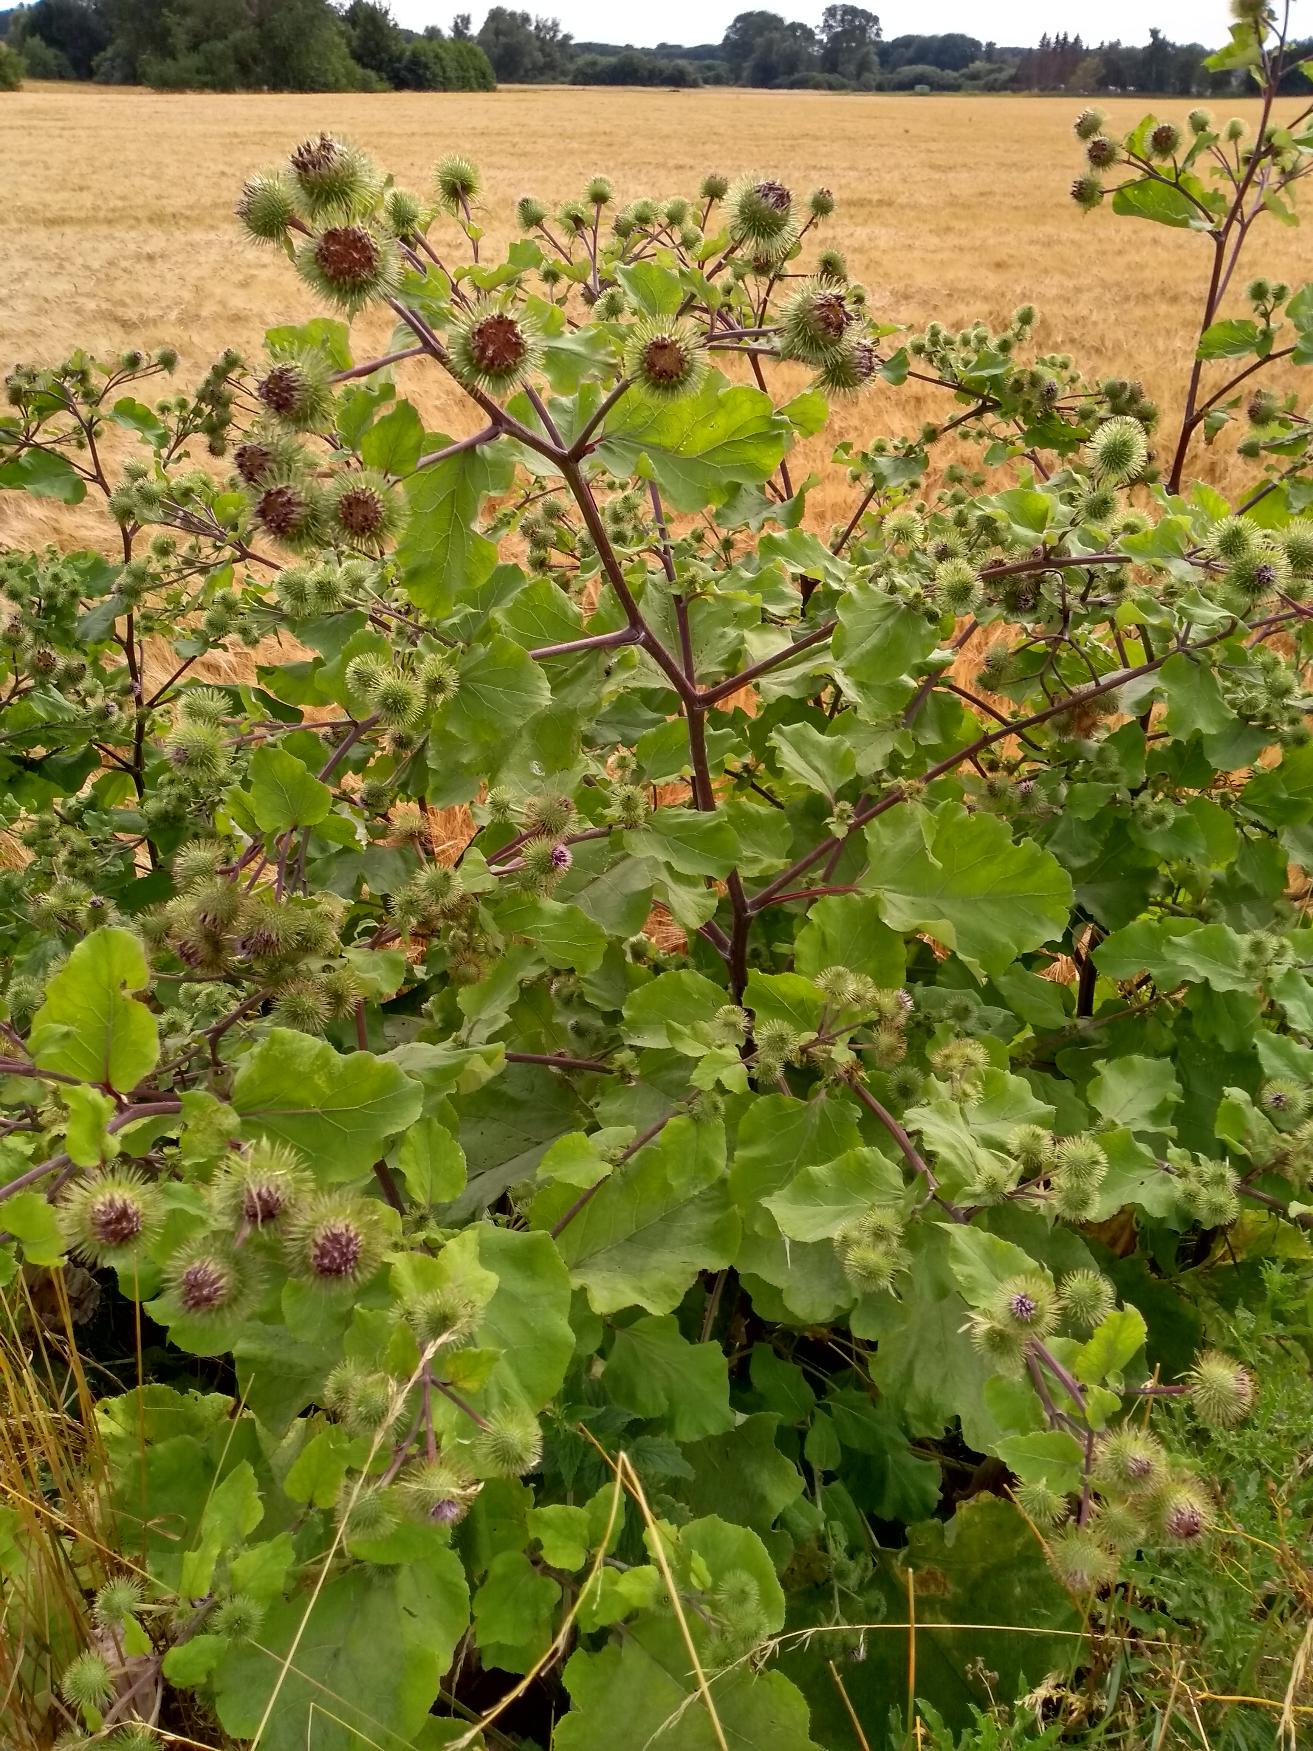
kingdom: Plantae
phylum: Tracheophyta
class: Magnoliopsida
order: Asterales
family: Asteraceae
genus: Arctium
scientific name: Arctium lappa
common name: Glat burre
